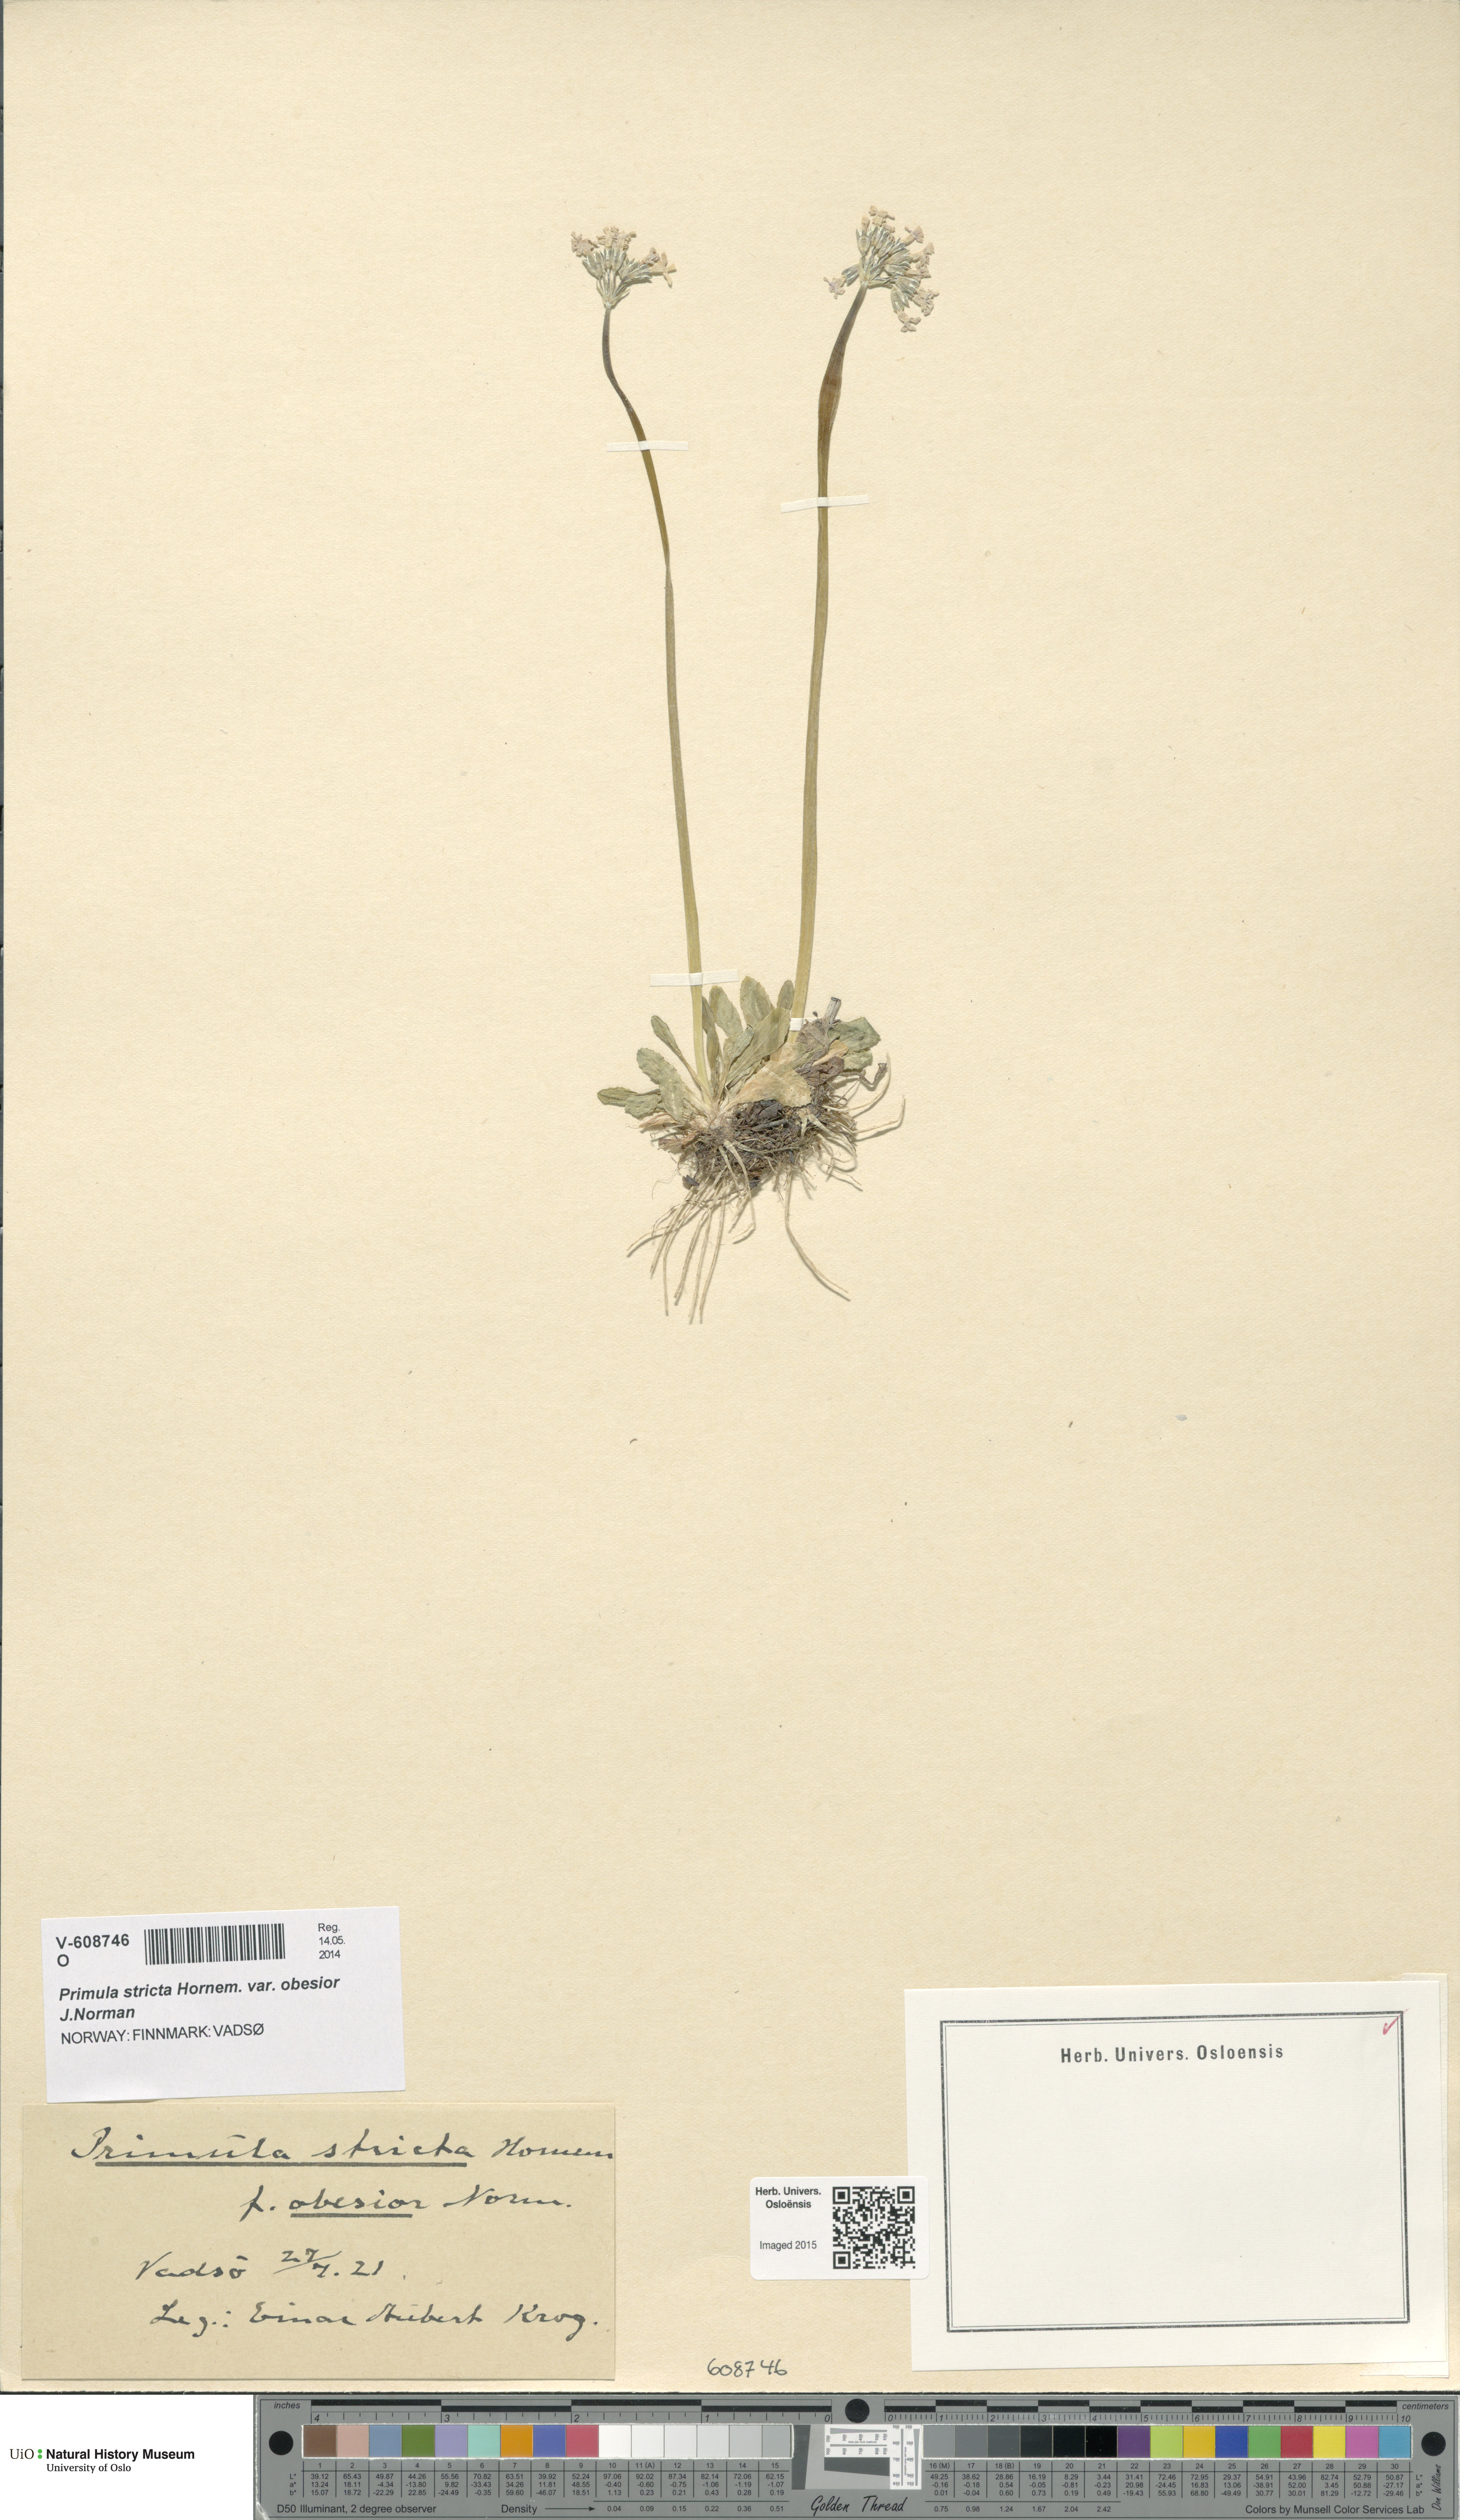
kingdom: Plantae
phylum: Tracheophyta
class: Magnoliopsida
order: Ericales
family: Primulaceae
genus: Primula
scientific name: Primula stricta
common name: Coastal primrose
